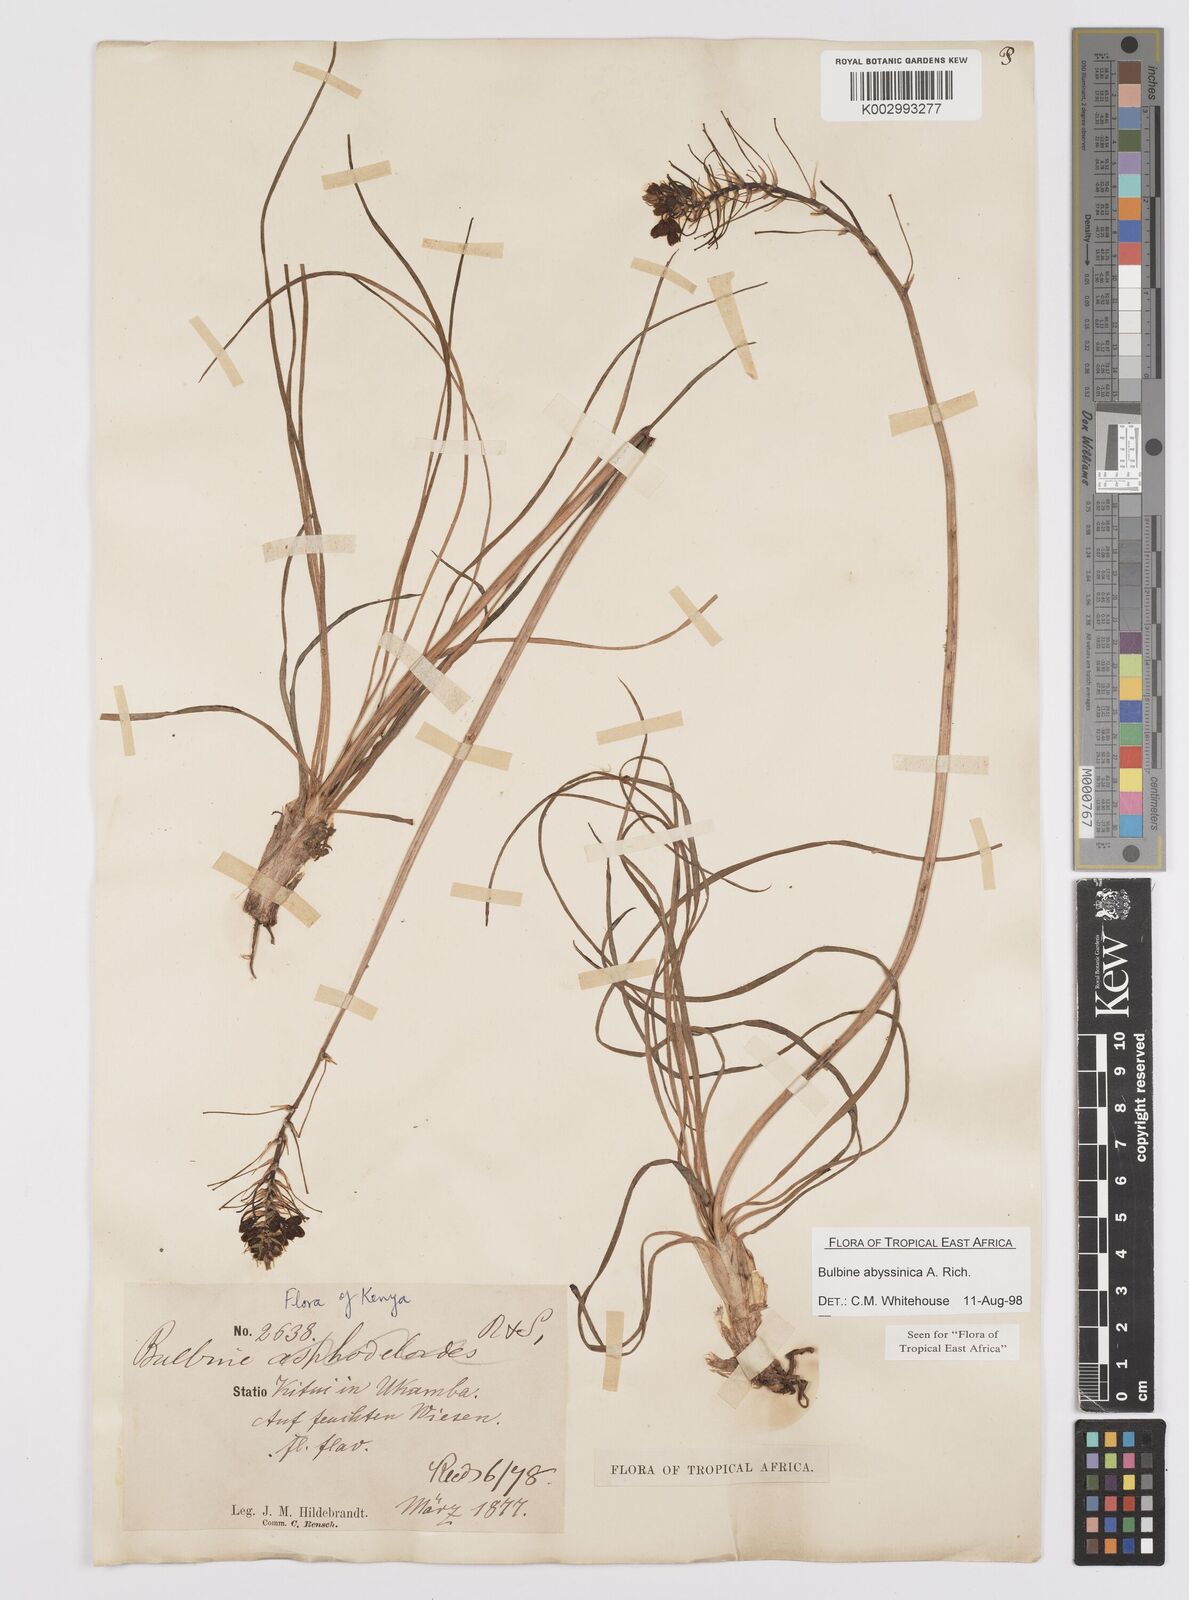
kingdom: Plantae
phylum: Tracheophyta
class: Liliopsida
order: Asparagales
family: Asphodelaceae
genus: Bulbine
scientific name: Bulbine abyssinica
